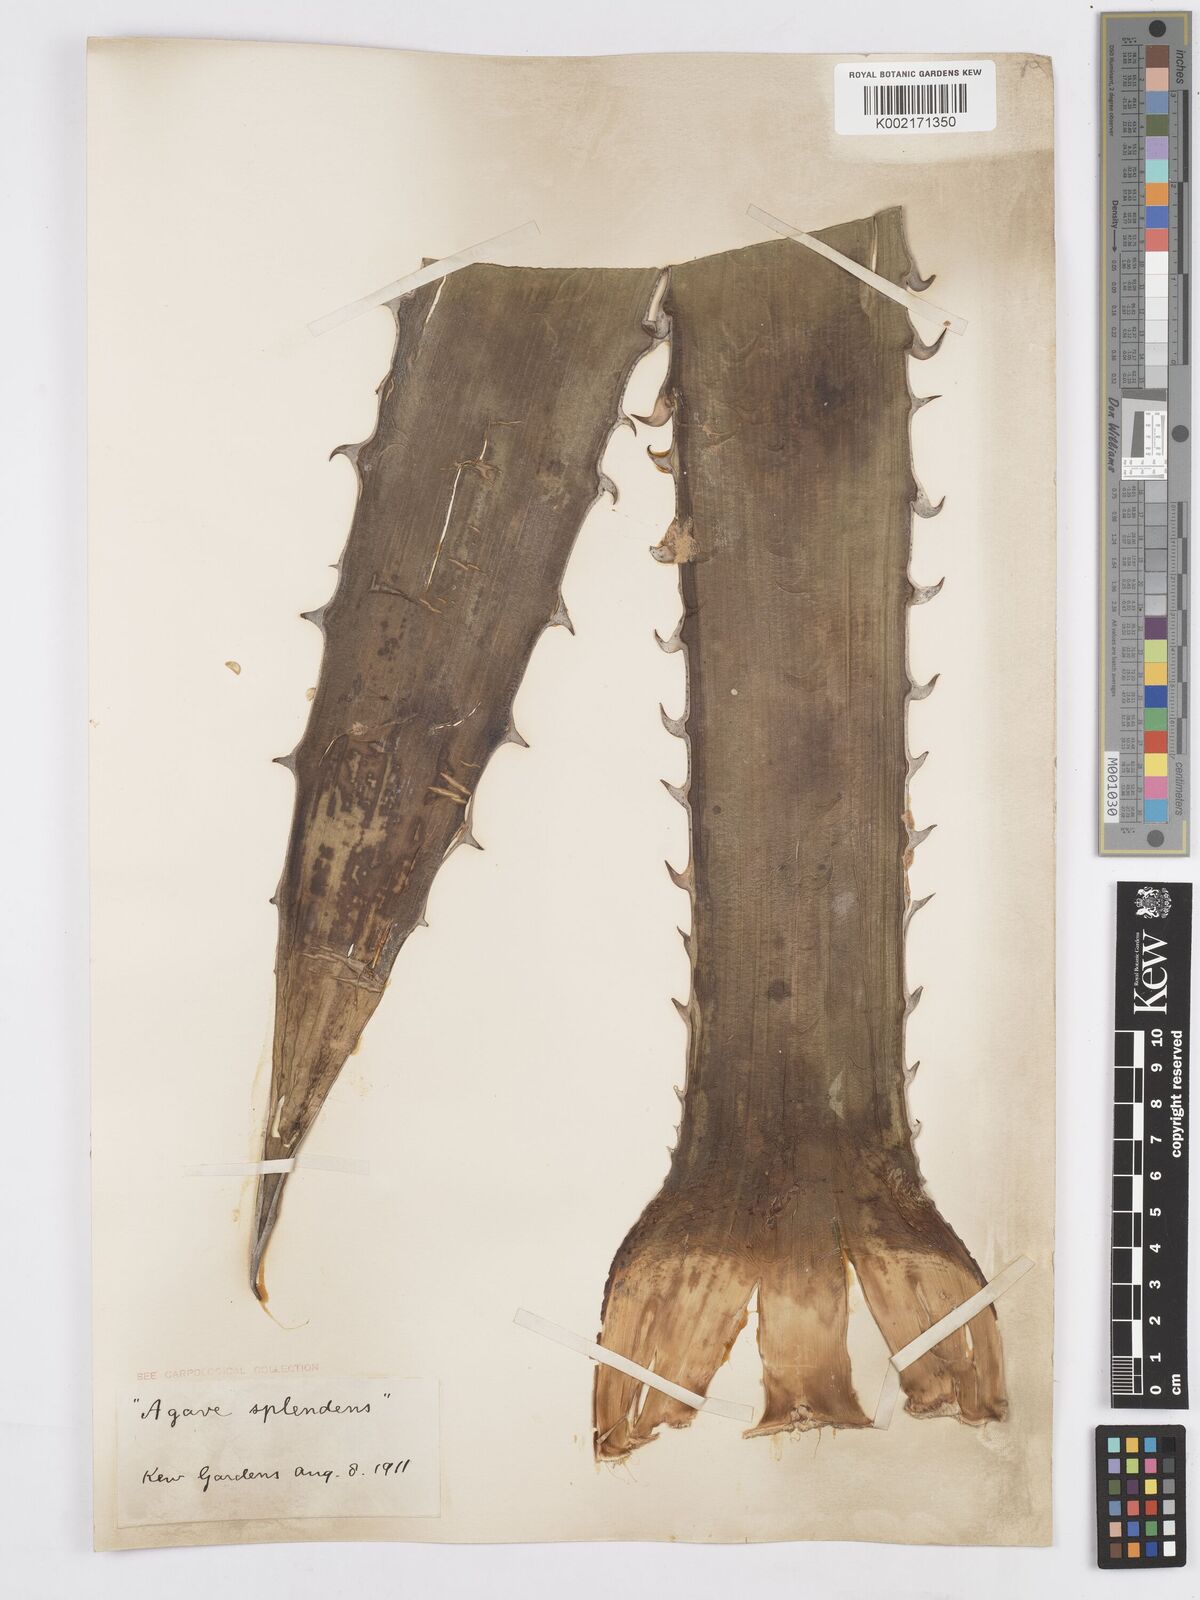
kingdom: Plantae
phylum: Tracheophyta
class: Liliopsida
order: Asparagales
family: Asparagaceae
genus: Agave
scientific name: Agave xylonacantha
